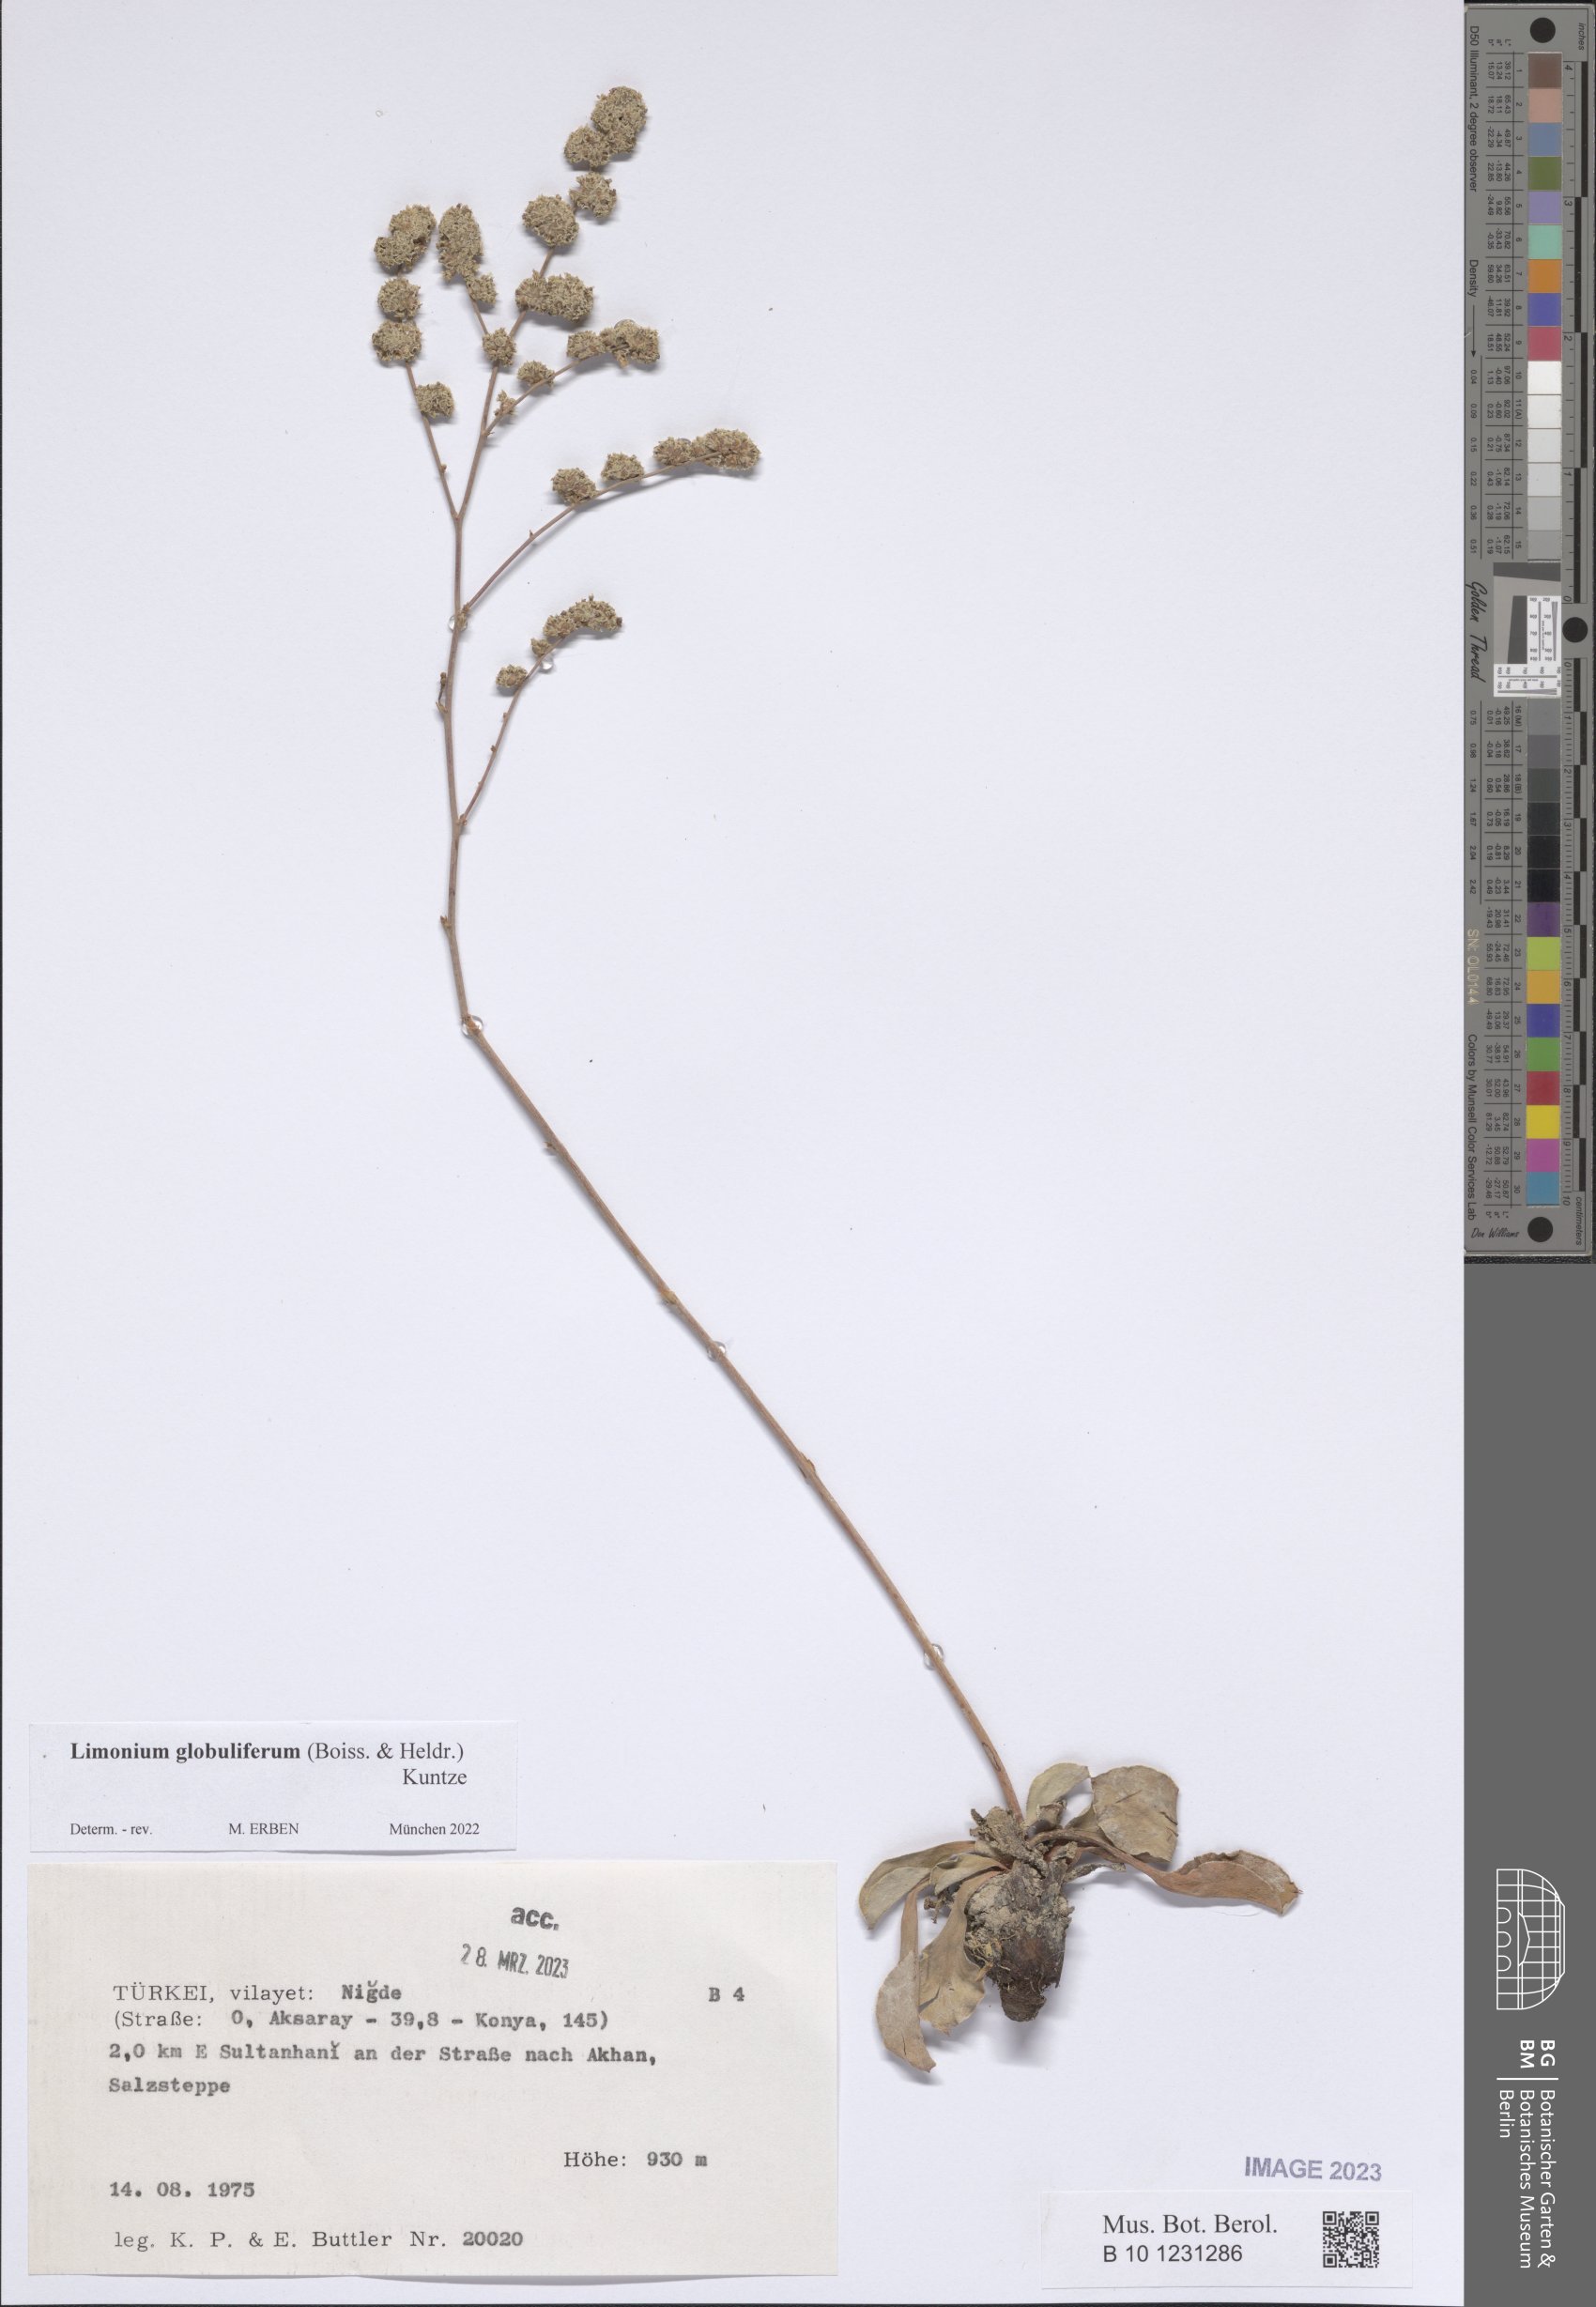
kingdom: Plantae
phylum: Tracheophyta
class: Magnoliopsida
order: Caryophyllales
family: Plumbaginaceae
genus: Limonium
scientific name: Limonium globuliferum
